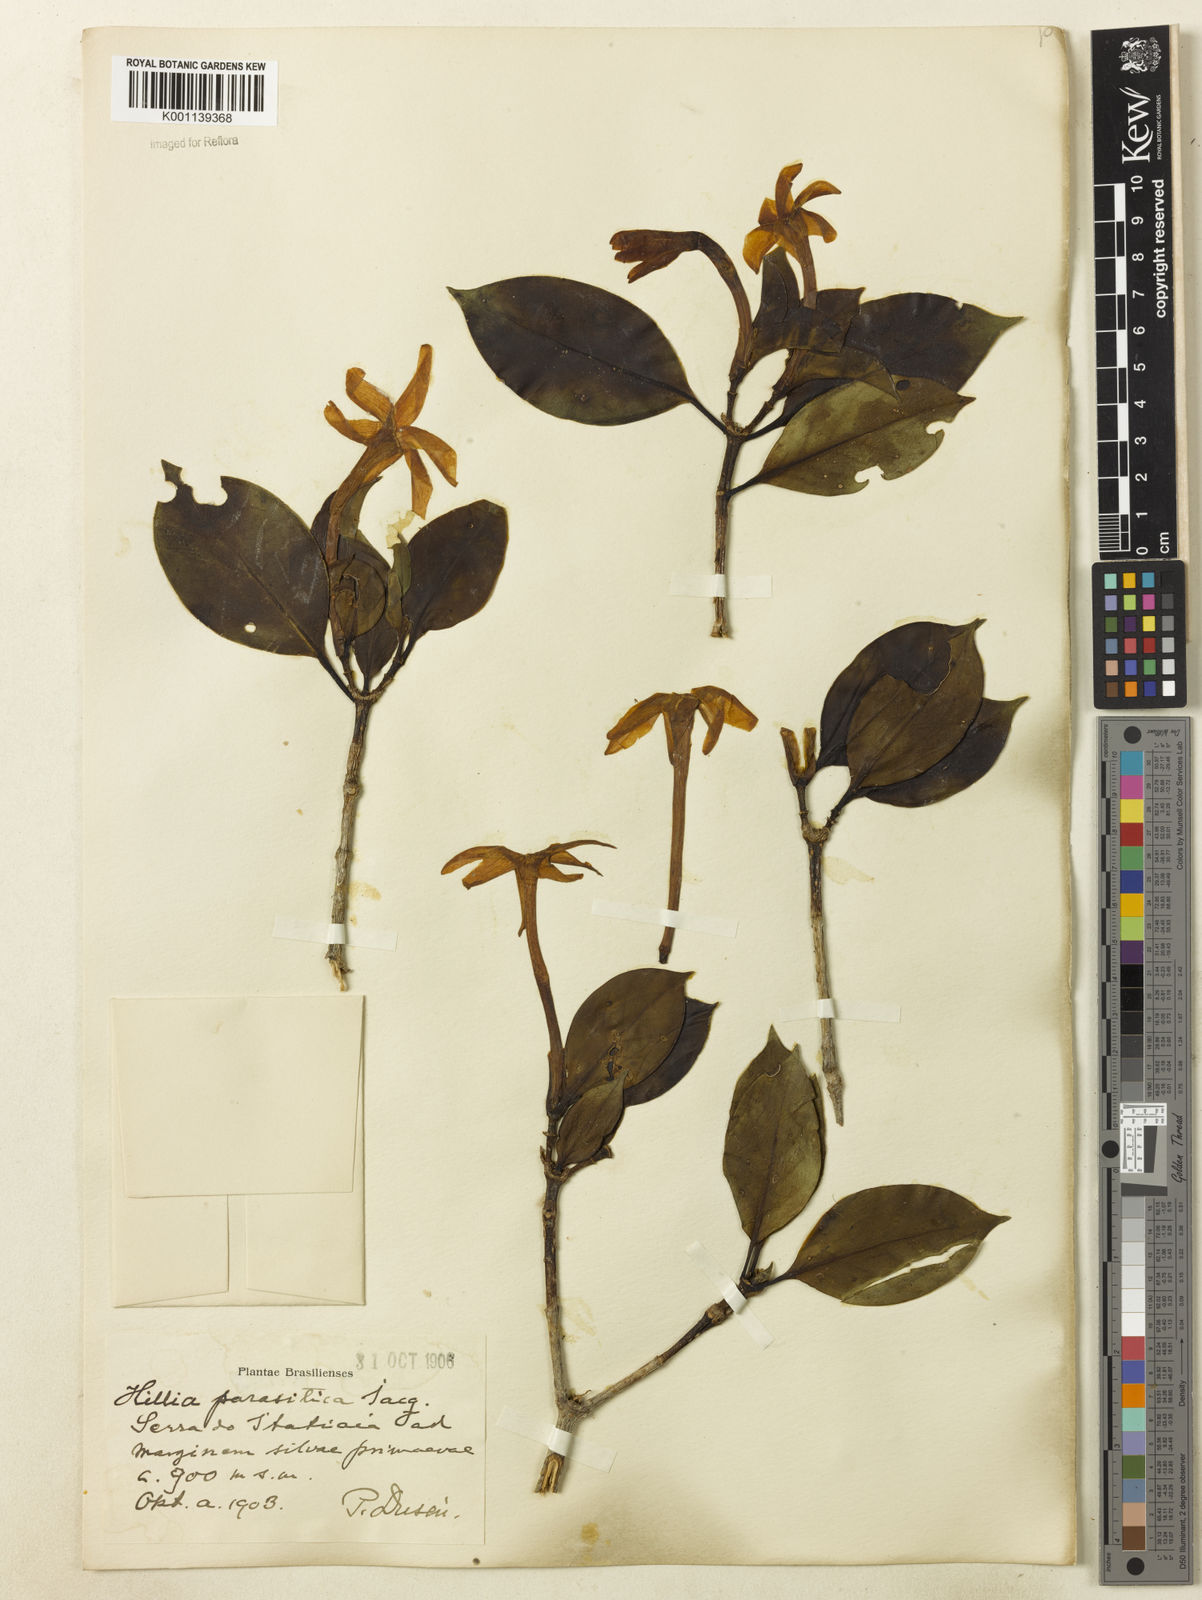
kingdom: Plantae
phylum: Tracheophyta
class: Magnoliopsida
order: Gentianales
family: Rubiaceae
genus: Hillia
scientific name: Hillia parasitica
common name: Morning star
